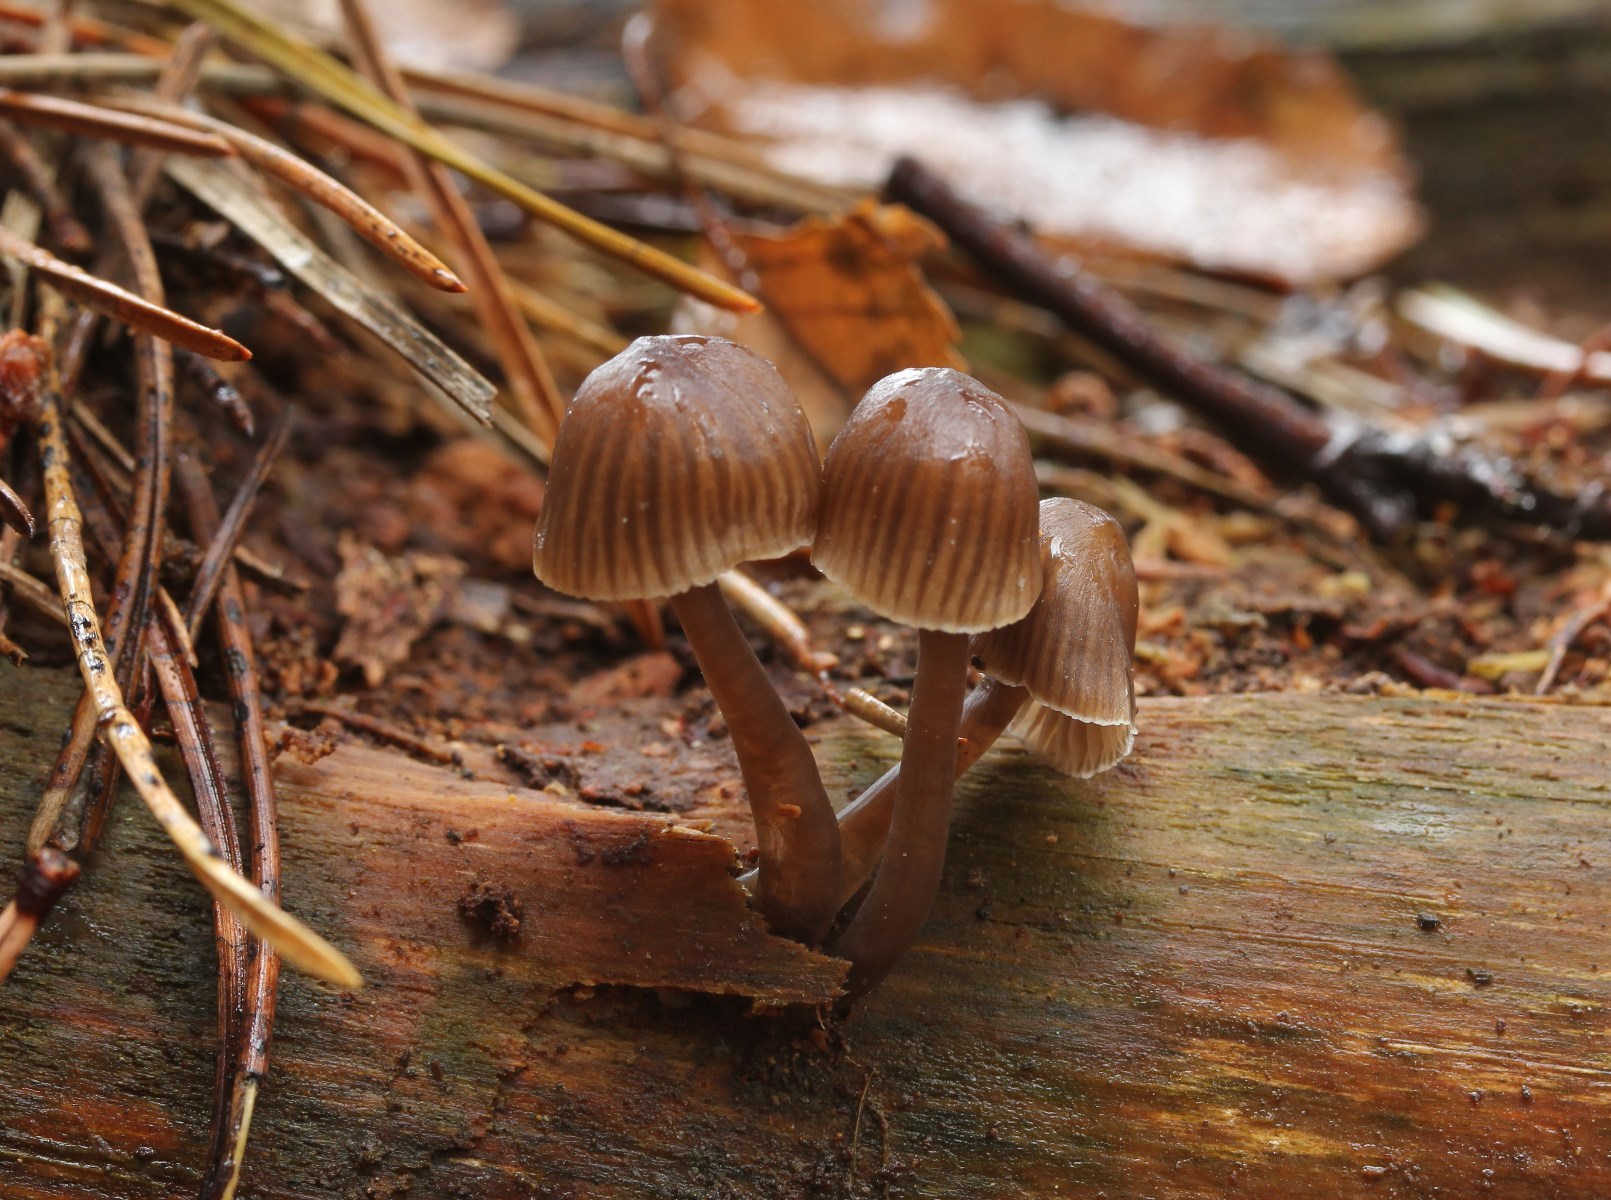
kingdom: Fungi
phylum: Basidiomycota
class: Agaricomycetes
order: Agaricales
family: Mycenaceae
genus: Mycena
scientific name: Mycena stipata
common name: stinkende huesvamp
